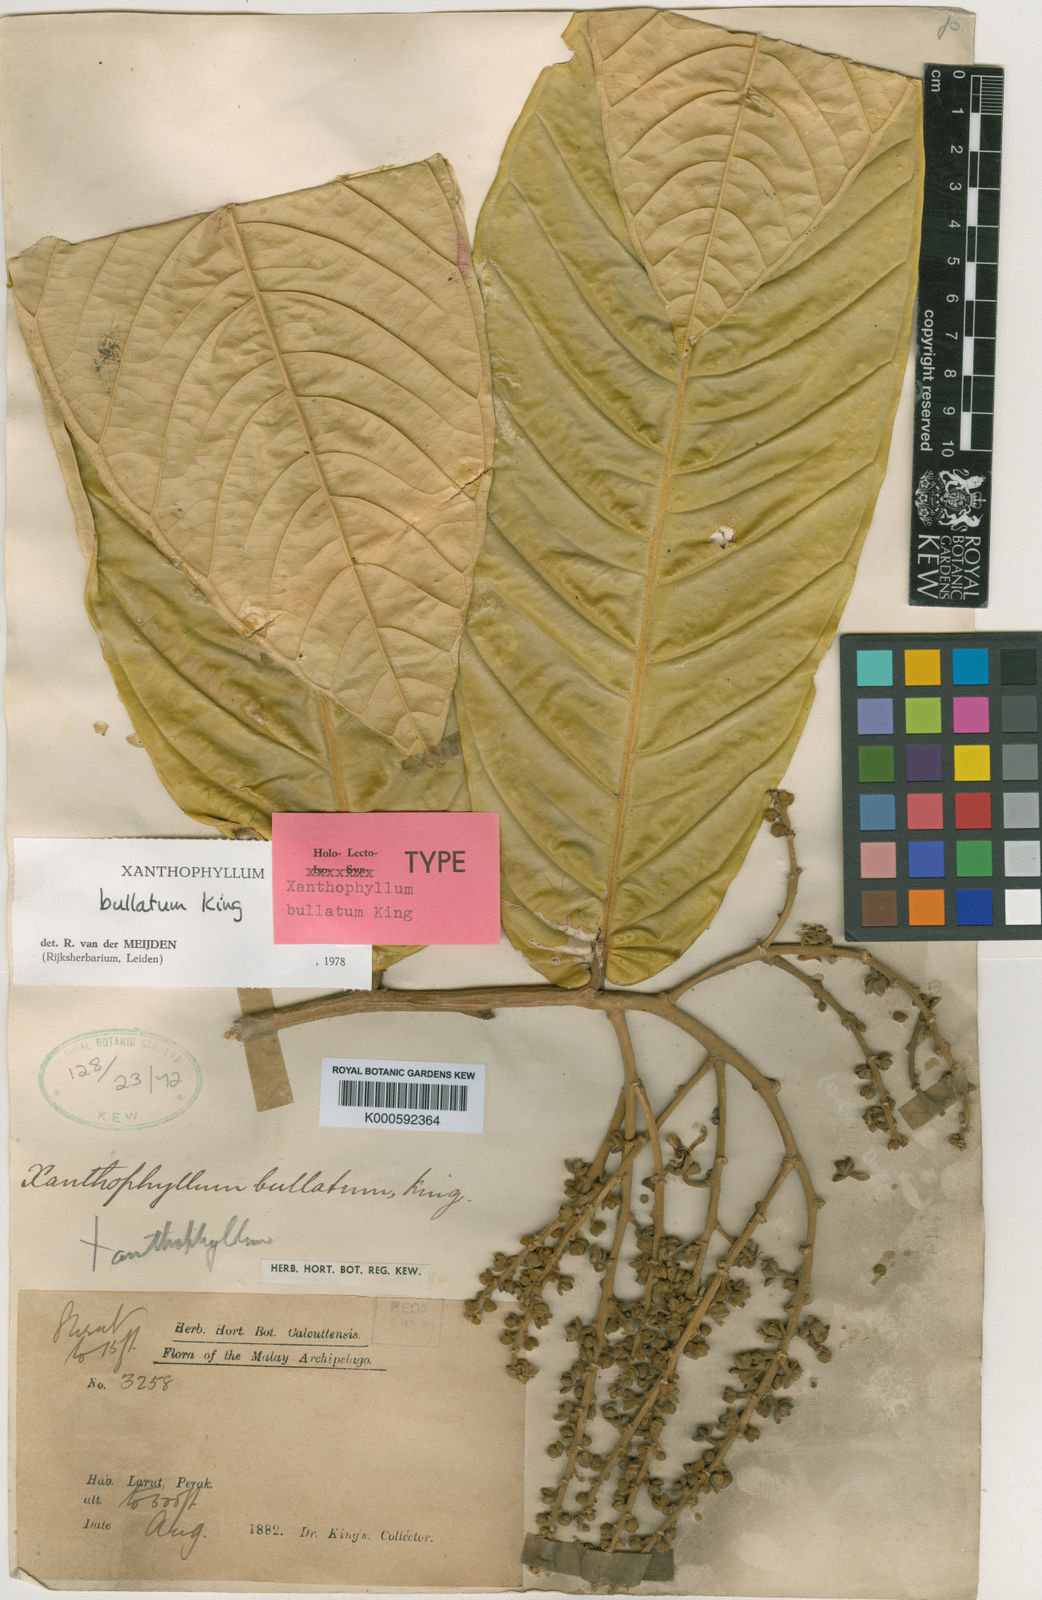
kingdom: Plantae
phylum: Tracheophyta
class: Magnoliopsida
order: Fabales
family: Polygalaceae
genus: Xanthophyllum
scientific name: Xanthophyllum bullatum
